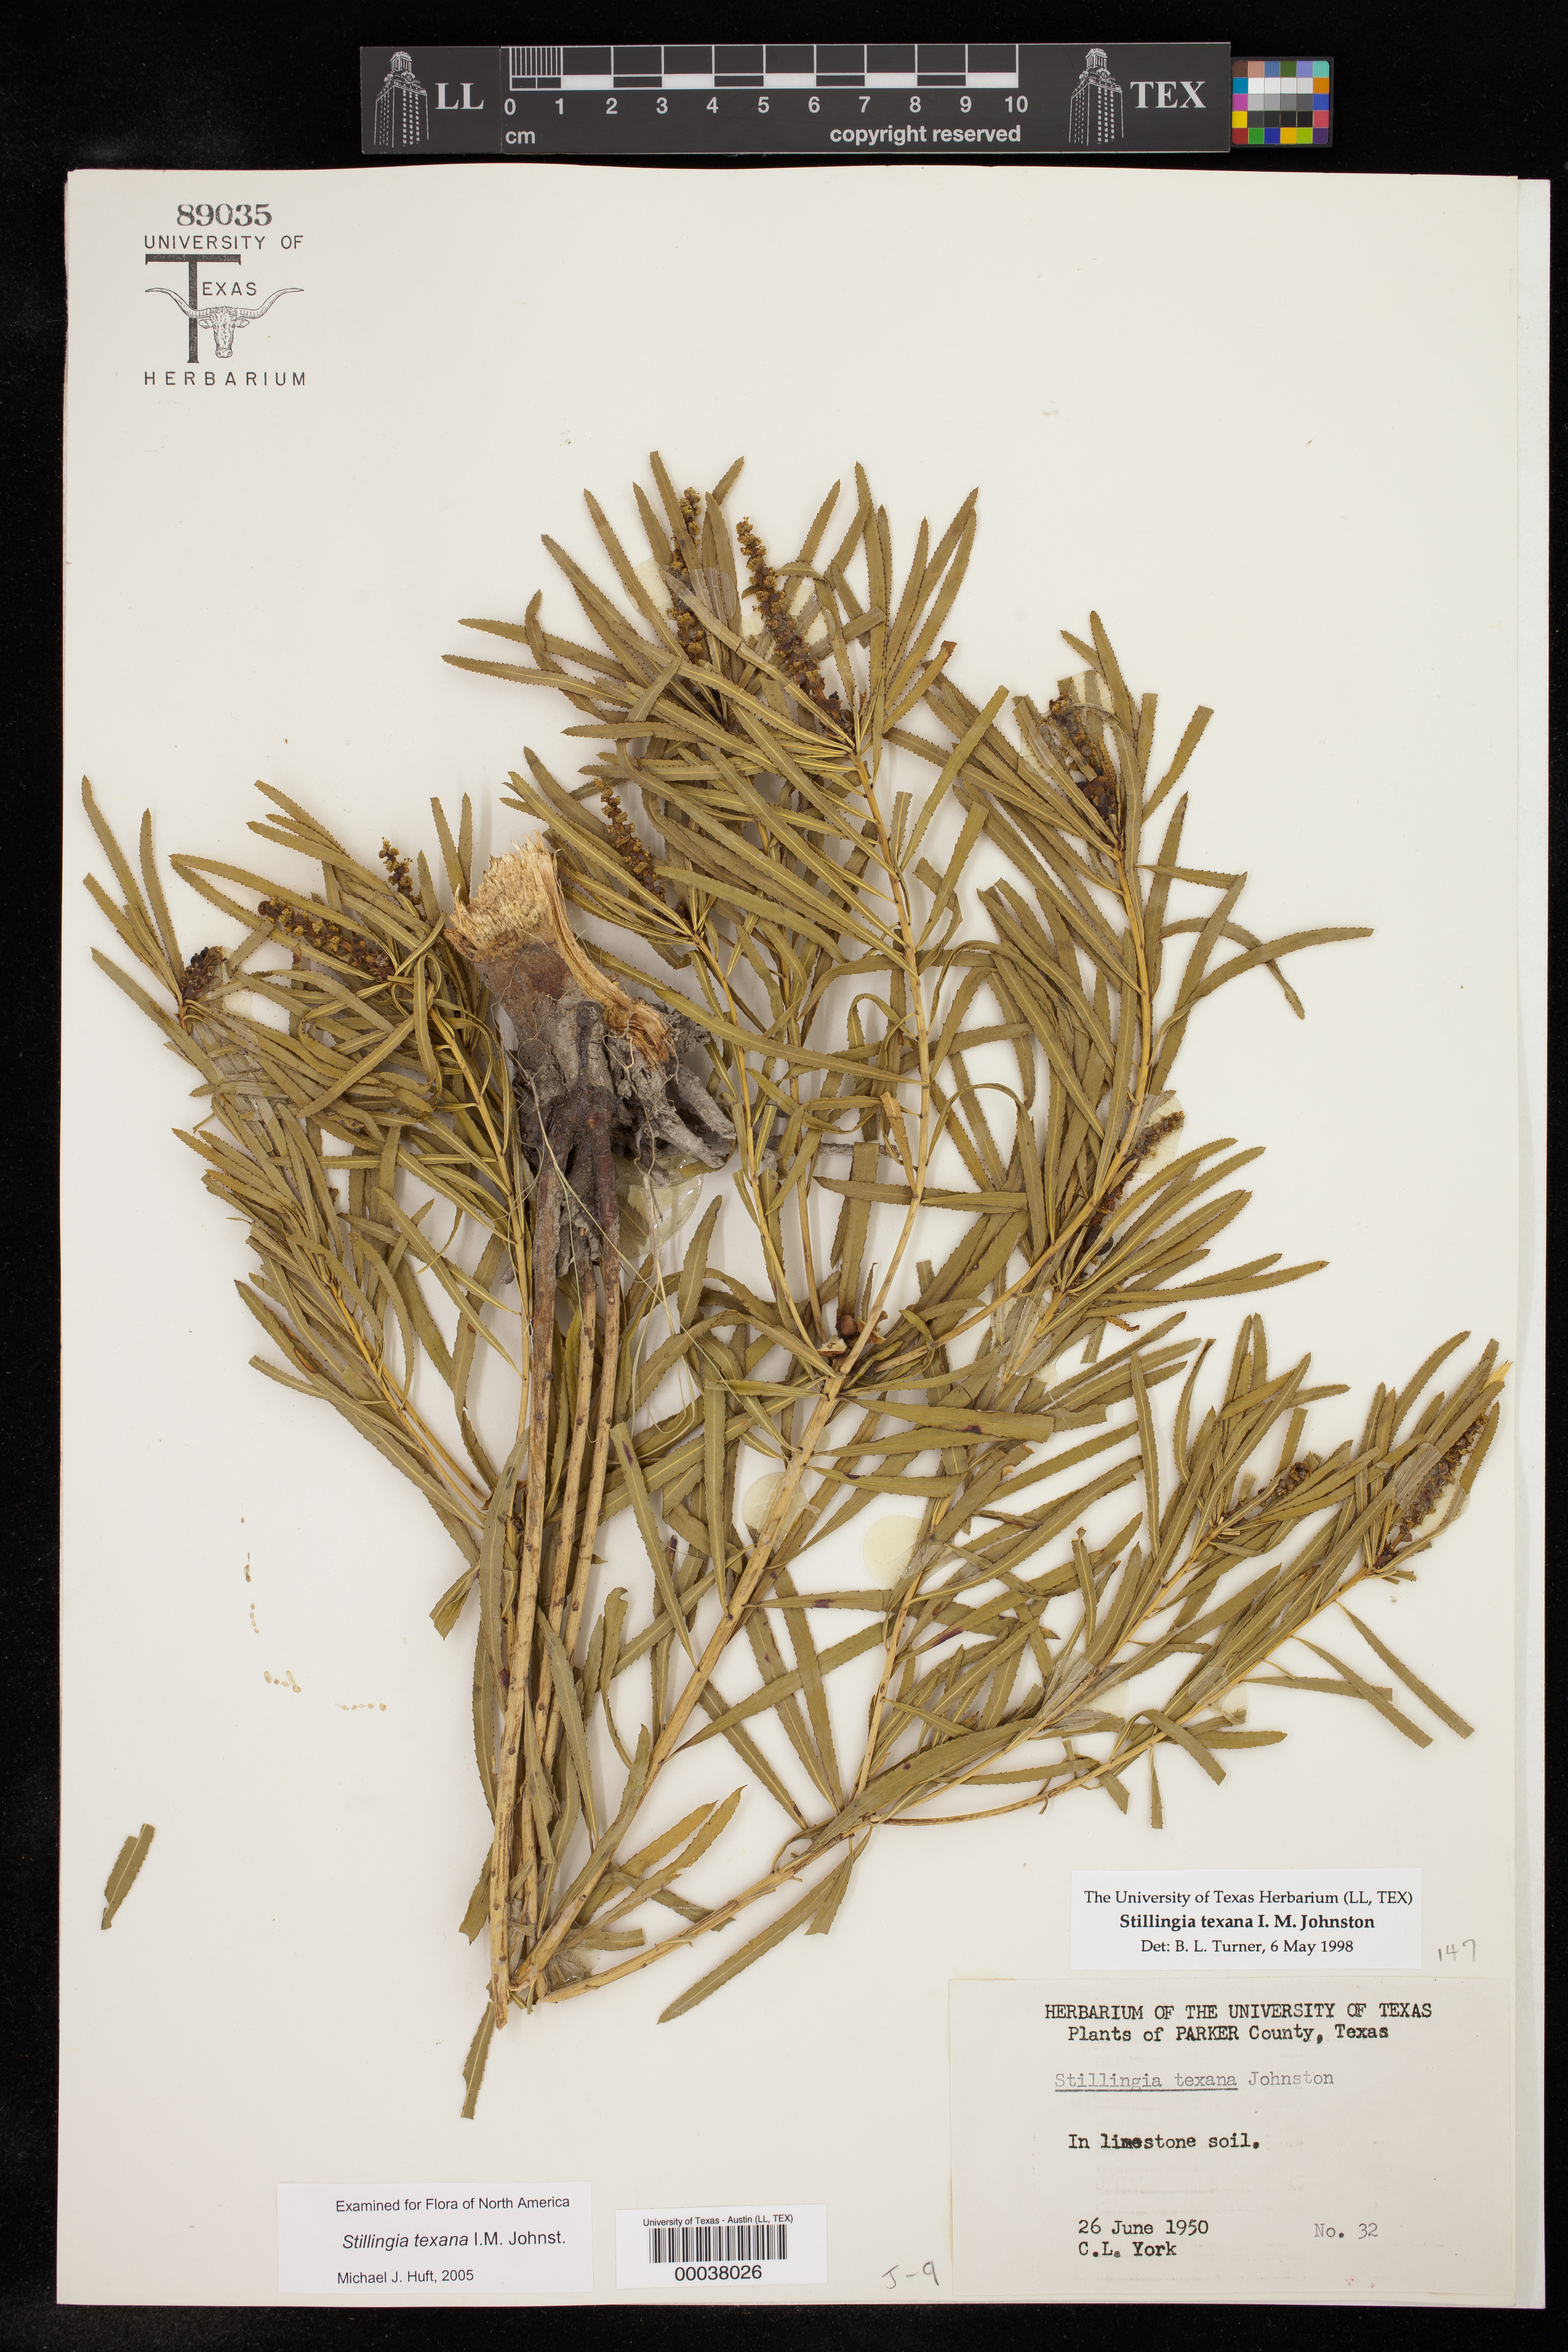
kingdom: Plantae
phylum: Tracheophyta
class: Magnoliopsida
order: Malpighiales
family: Euphorbiaceae
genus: Stillingia
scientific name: Stillingia texana
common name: Texas stillingia
